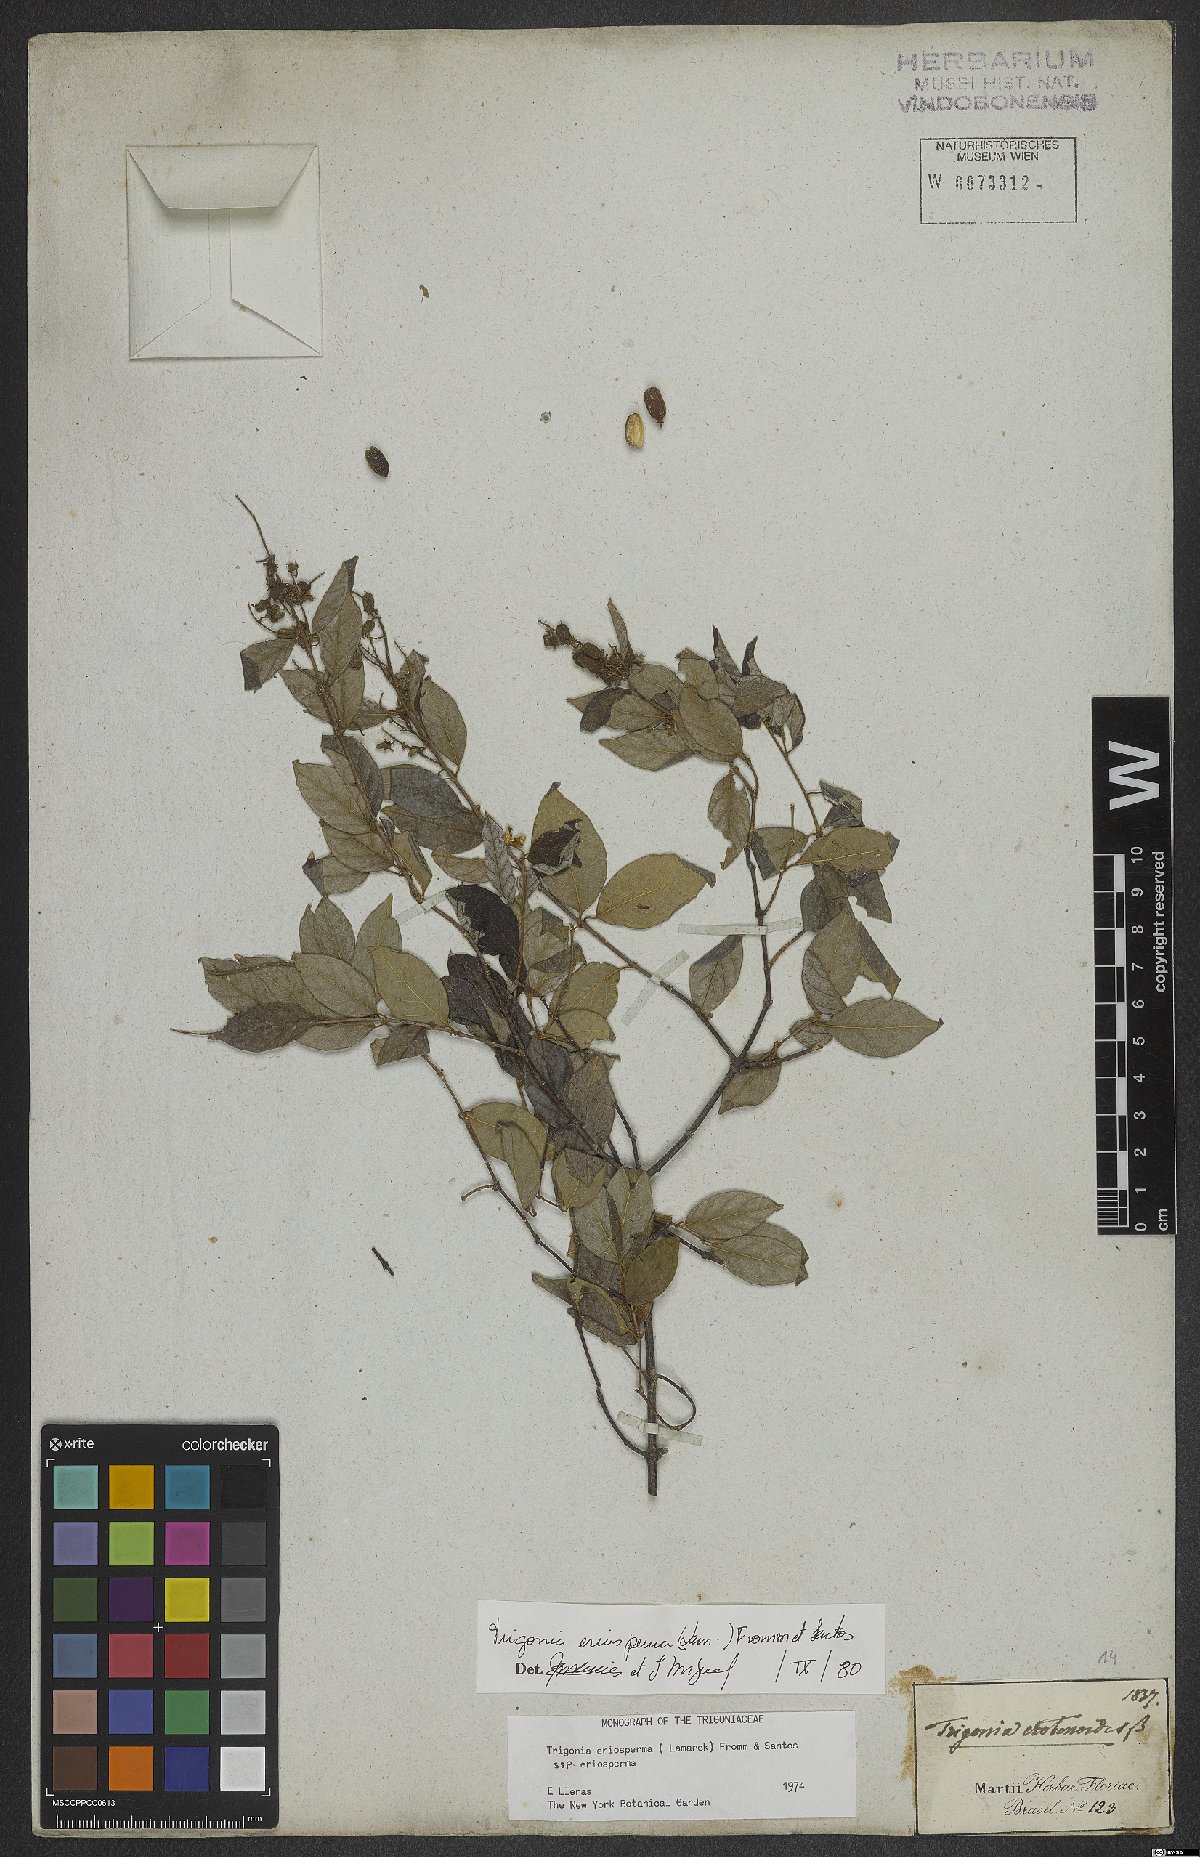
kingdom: Plantae
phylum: Tracheophyta
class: Magnoliopsida
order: Malpighiales
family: Trigoniaceae
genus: Trigonia
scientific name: Trigonia eriosperma
